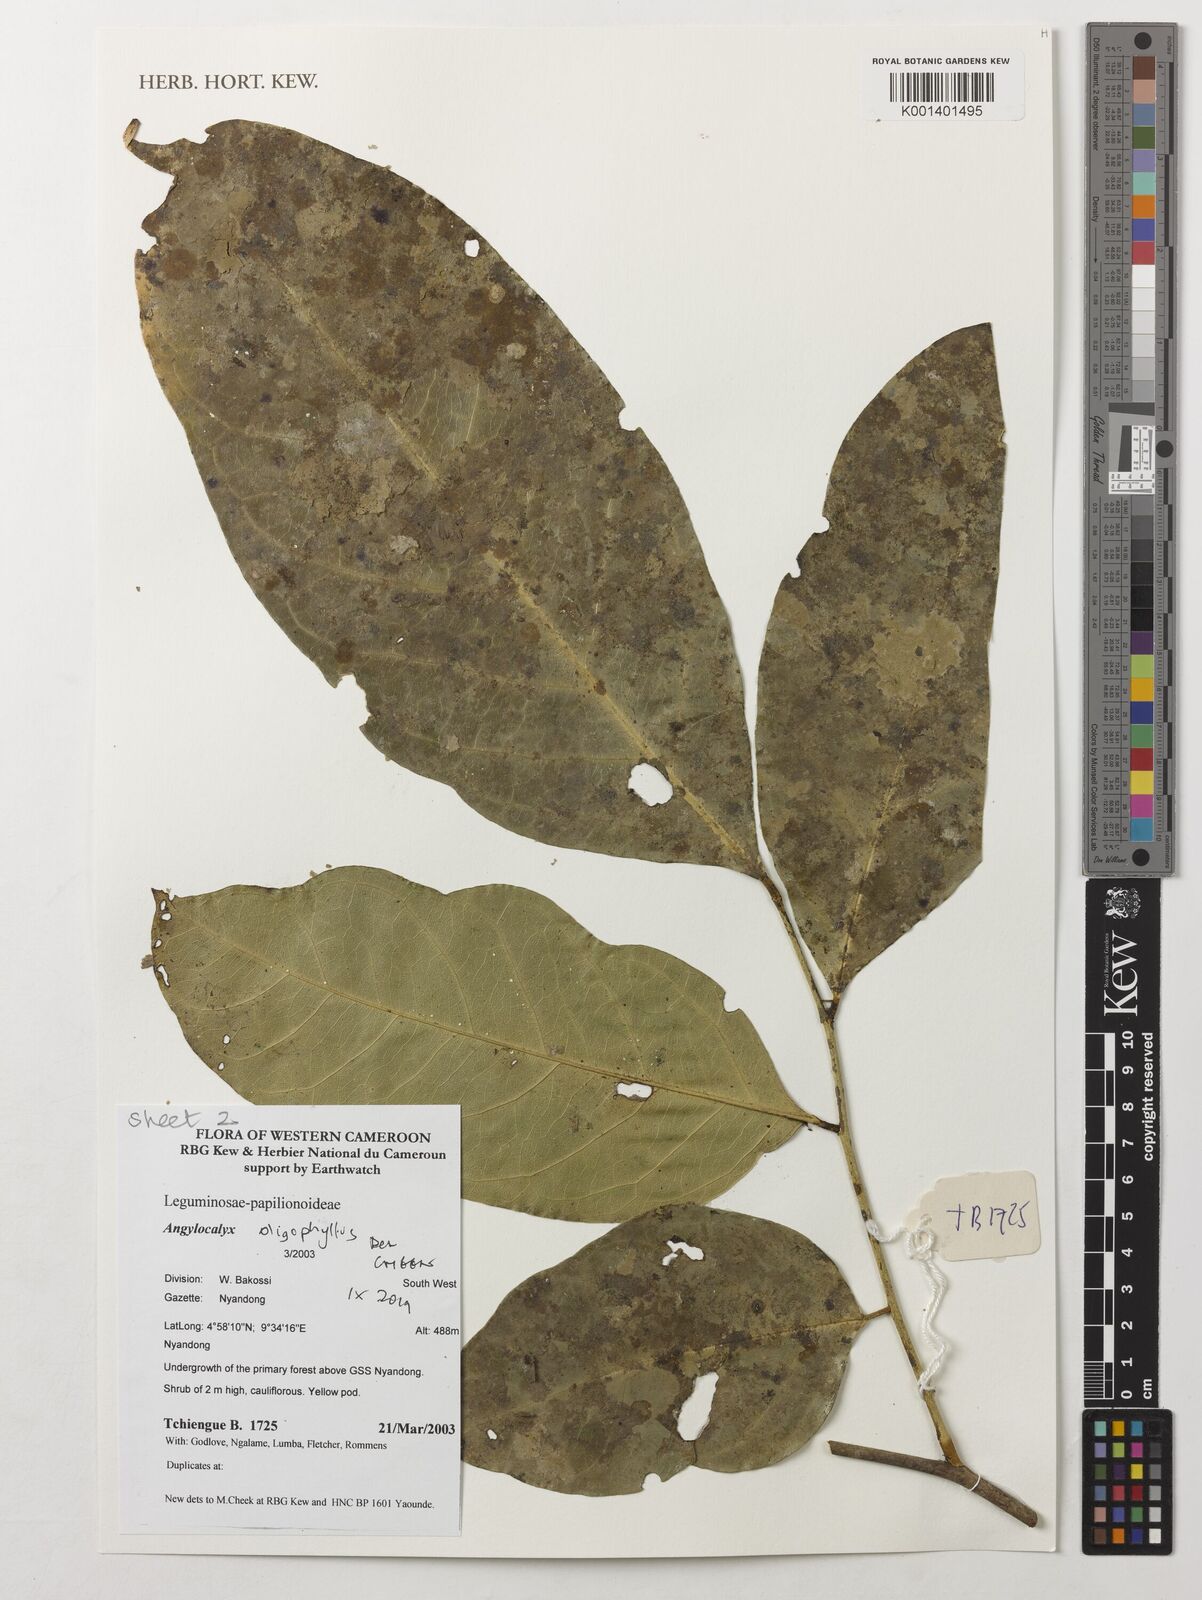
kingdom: Plantae
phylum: Tracheophyta
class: Magnoliopsida
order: Fabales
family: Fabaceae
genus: Angylocalyx
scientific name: Angylocalyx oligophyllus
